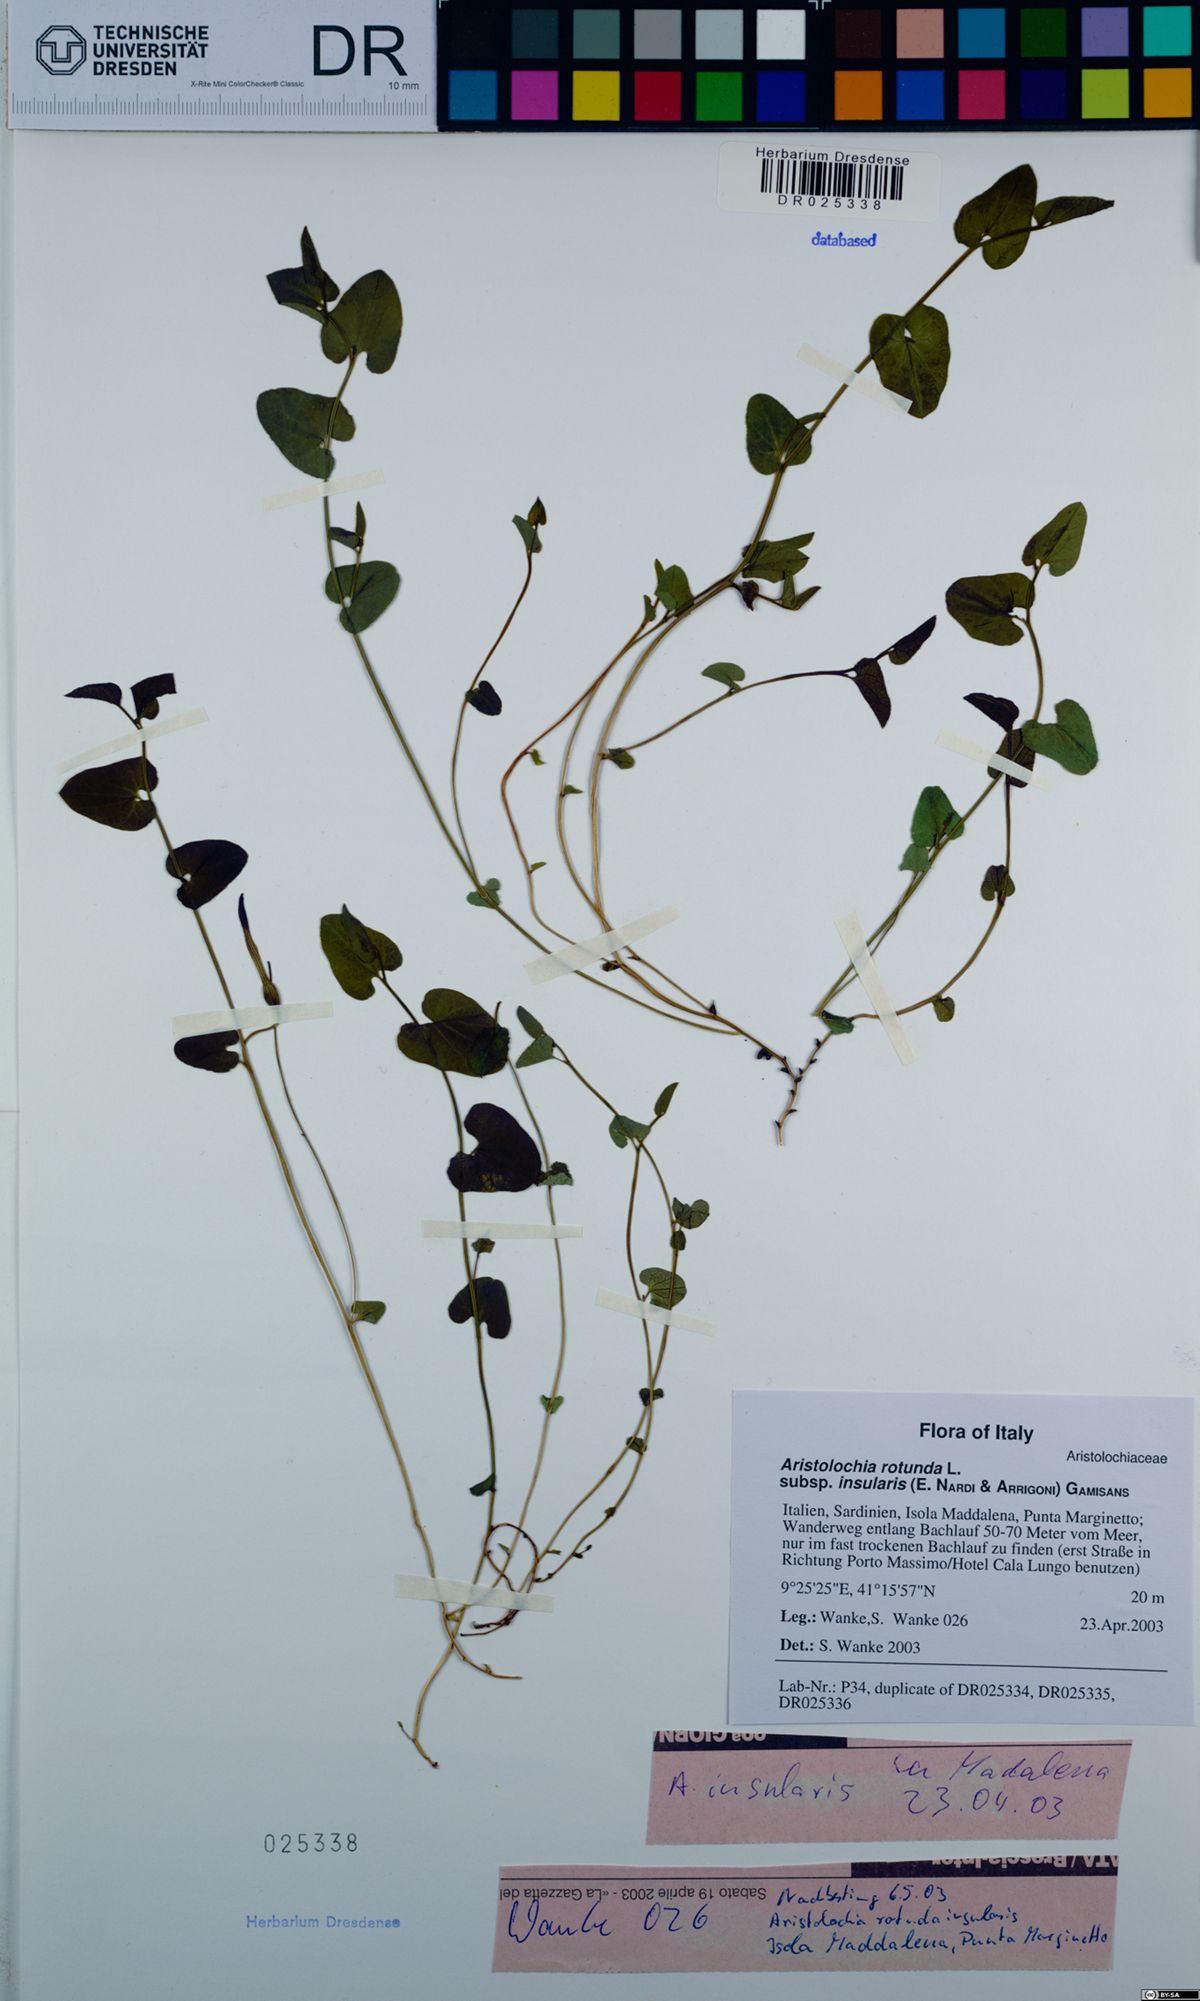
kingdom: Plantae
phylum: Tracheophyta
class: Magnoliopsida
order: Piperales
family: Aristolochiaceae
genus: Aristolochia
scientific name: Aristolochia rotunda
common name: Smearwort
